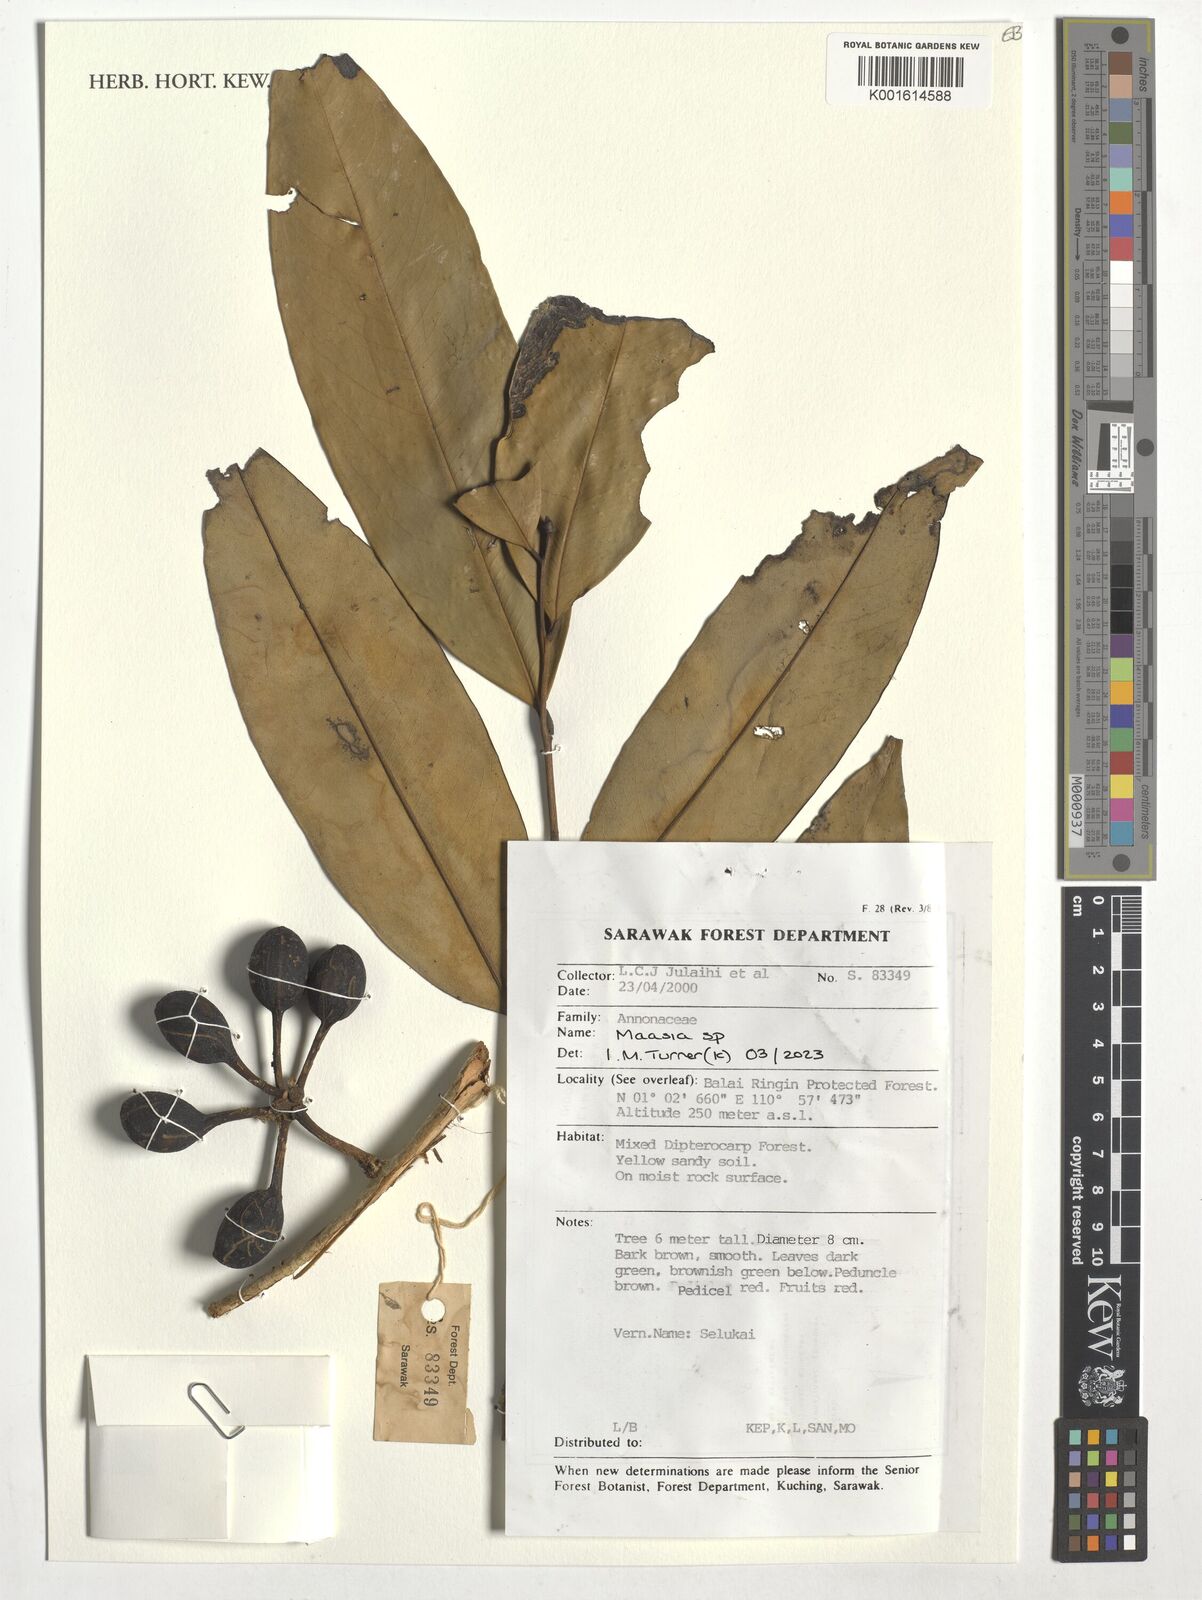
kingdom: Plantae
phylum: Tracheophyta
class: Magnoliopsida
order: Magnoliales
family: Annonaceae
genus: Maasia
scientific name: Maasia
